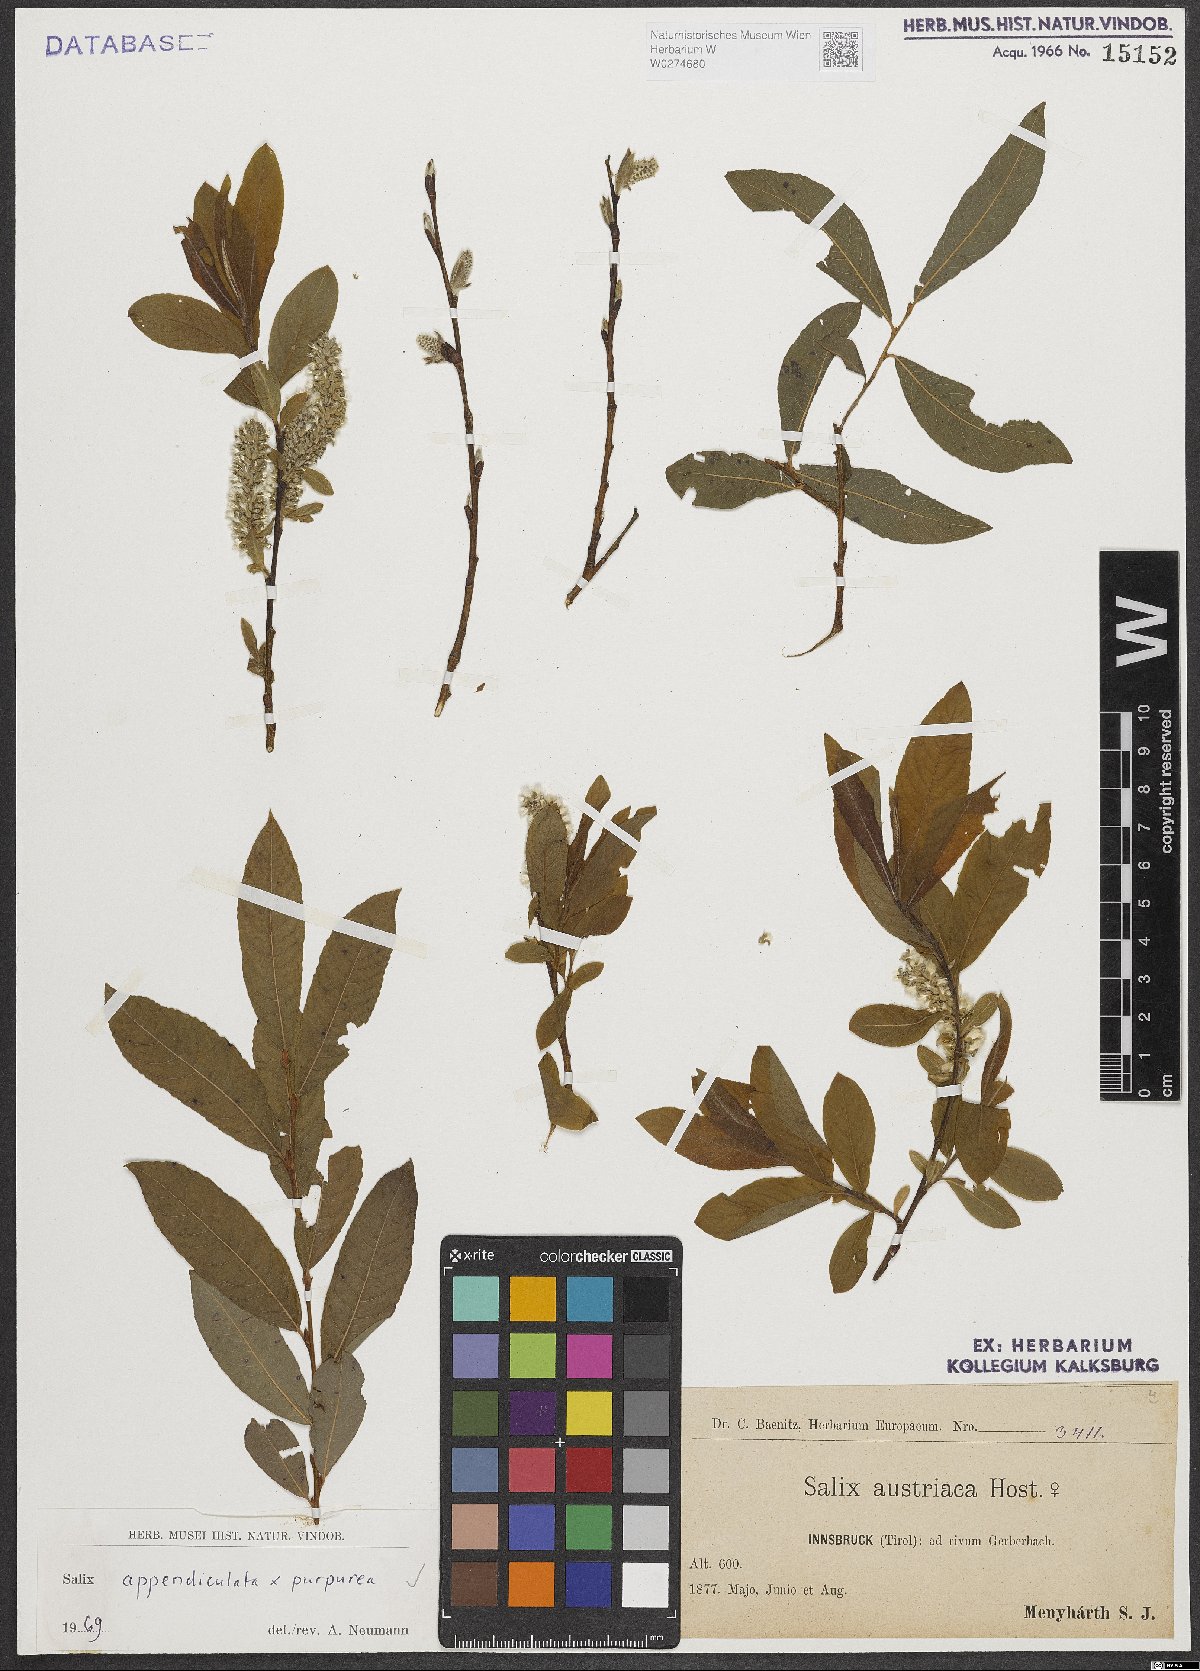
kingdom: Plantae
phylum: Tracheophyta
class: Magnoliopsida
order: Malpighiales
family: Salicaceae
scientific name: Salicaceae
